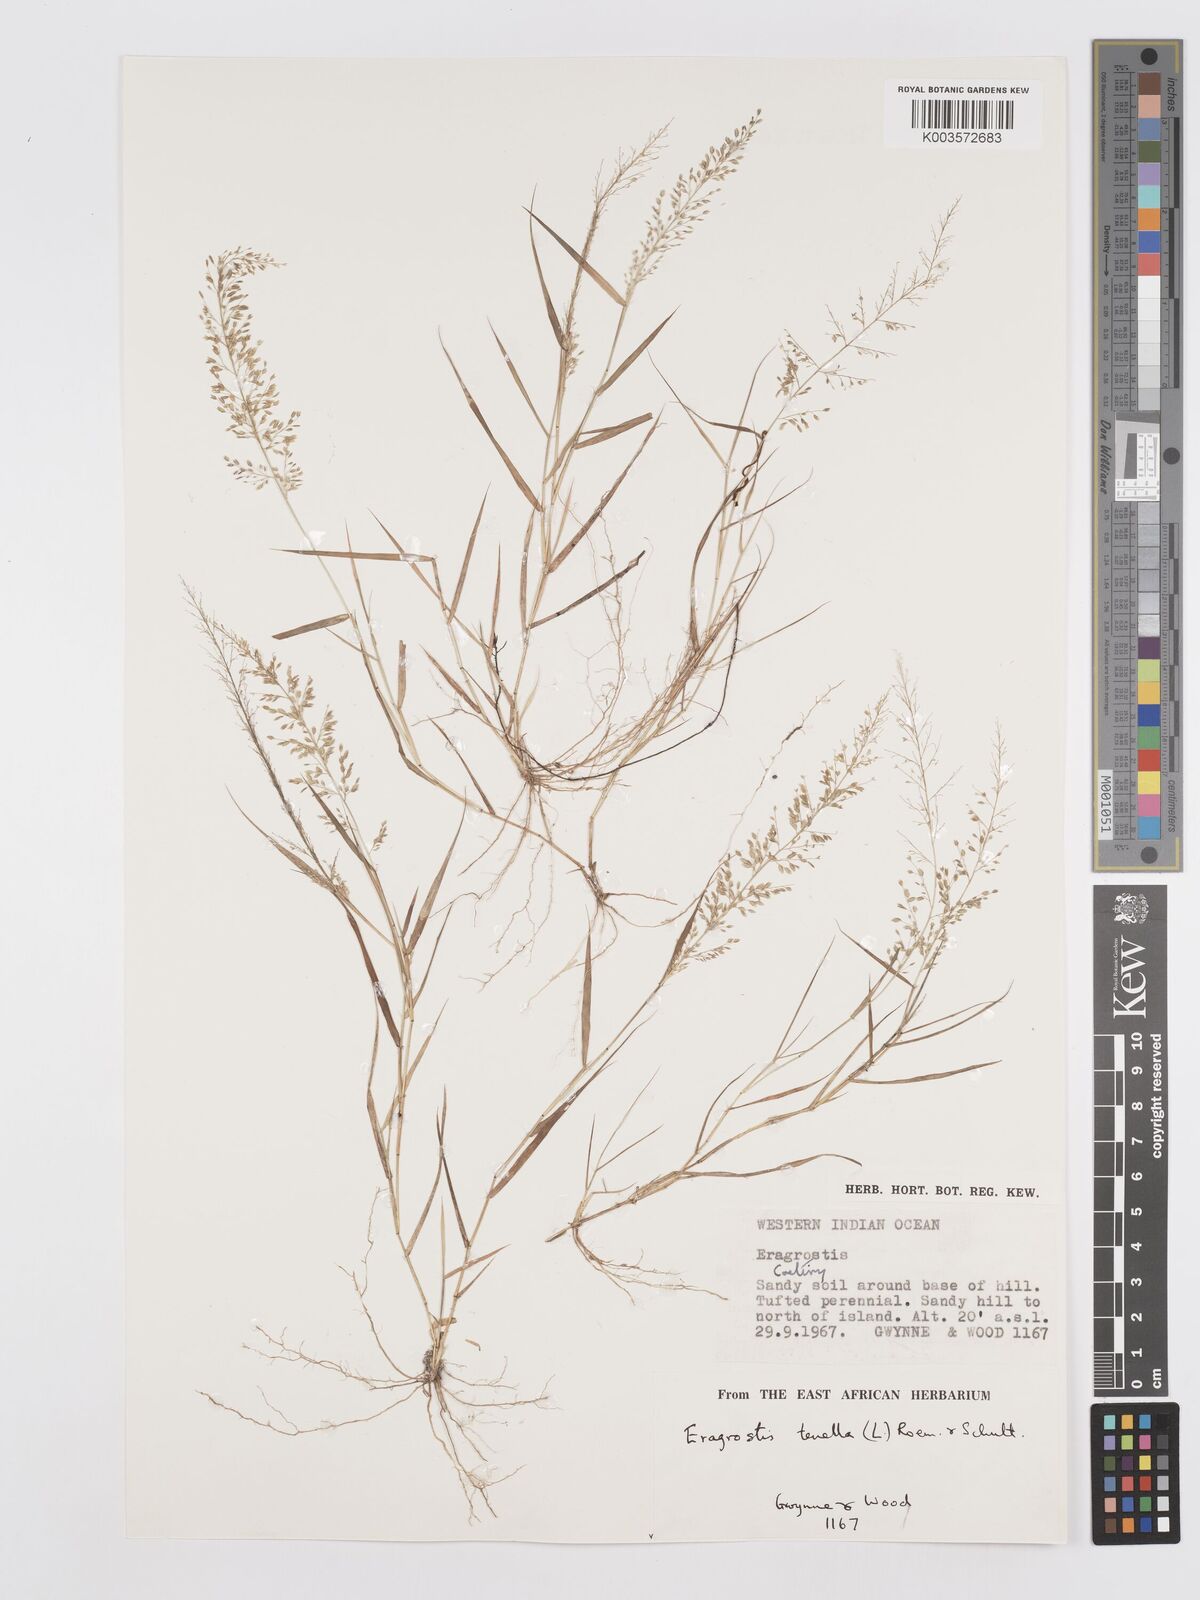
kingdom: Plantae
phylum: Tracheophyta
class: Liliopsida
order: Poales
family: Poaceae
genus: Eragrostis
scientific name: Eragrostis tenella
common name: Japanese lovegrass
